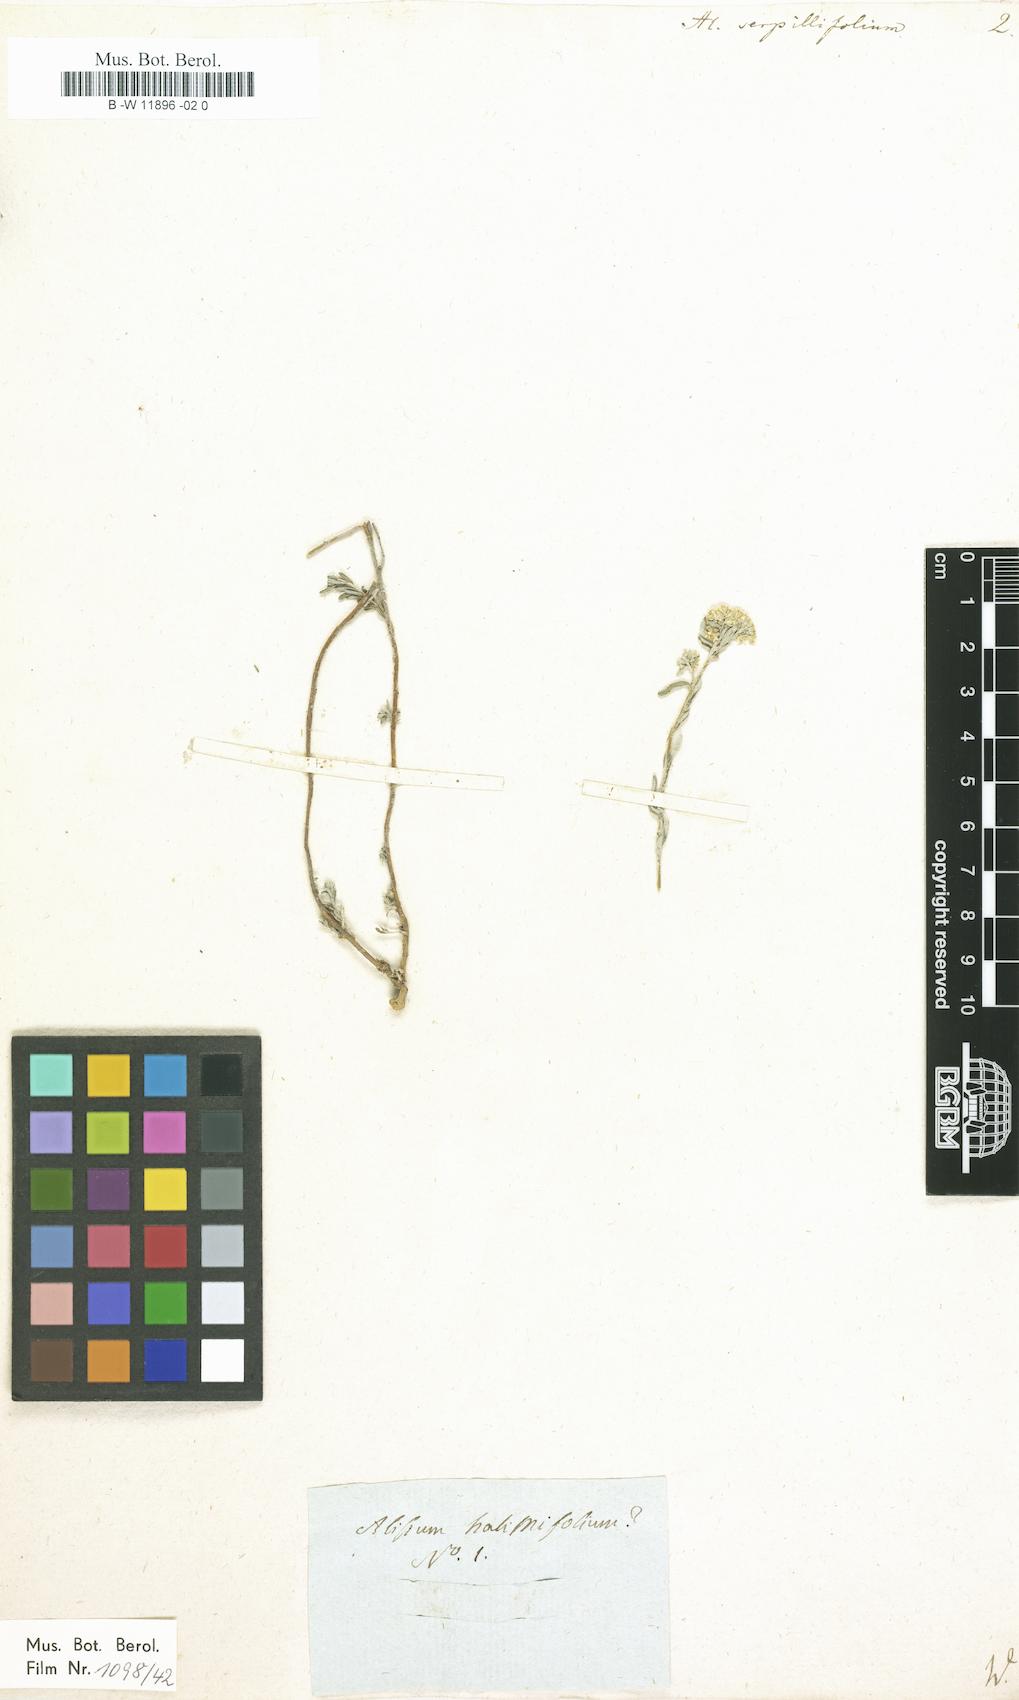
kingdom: Plantae
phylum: Tracheophyta
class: Magnoliopsida
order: Brassicales
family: Brassicaceae
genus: Odontarrhena
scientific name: Odontarrhena serpyllifolia
